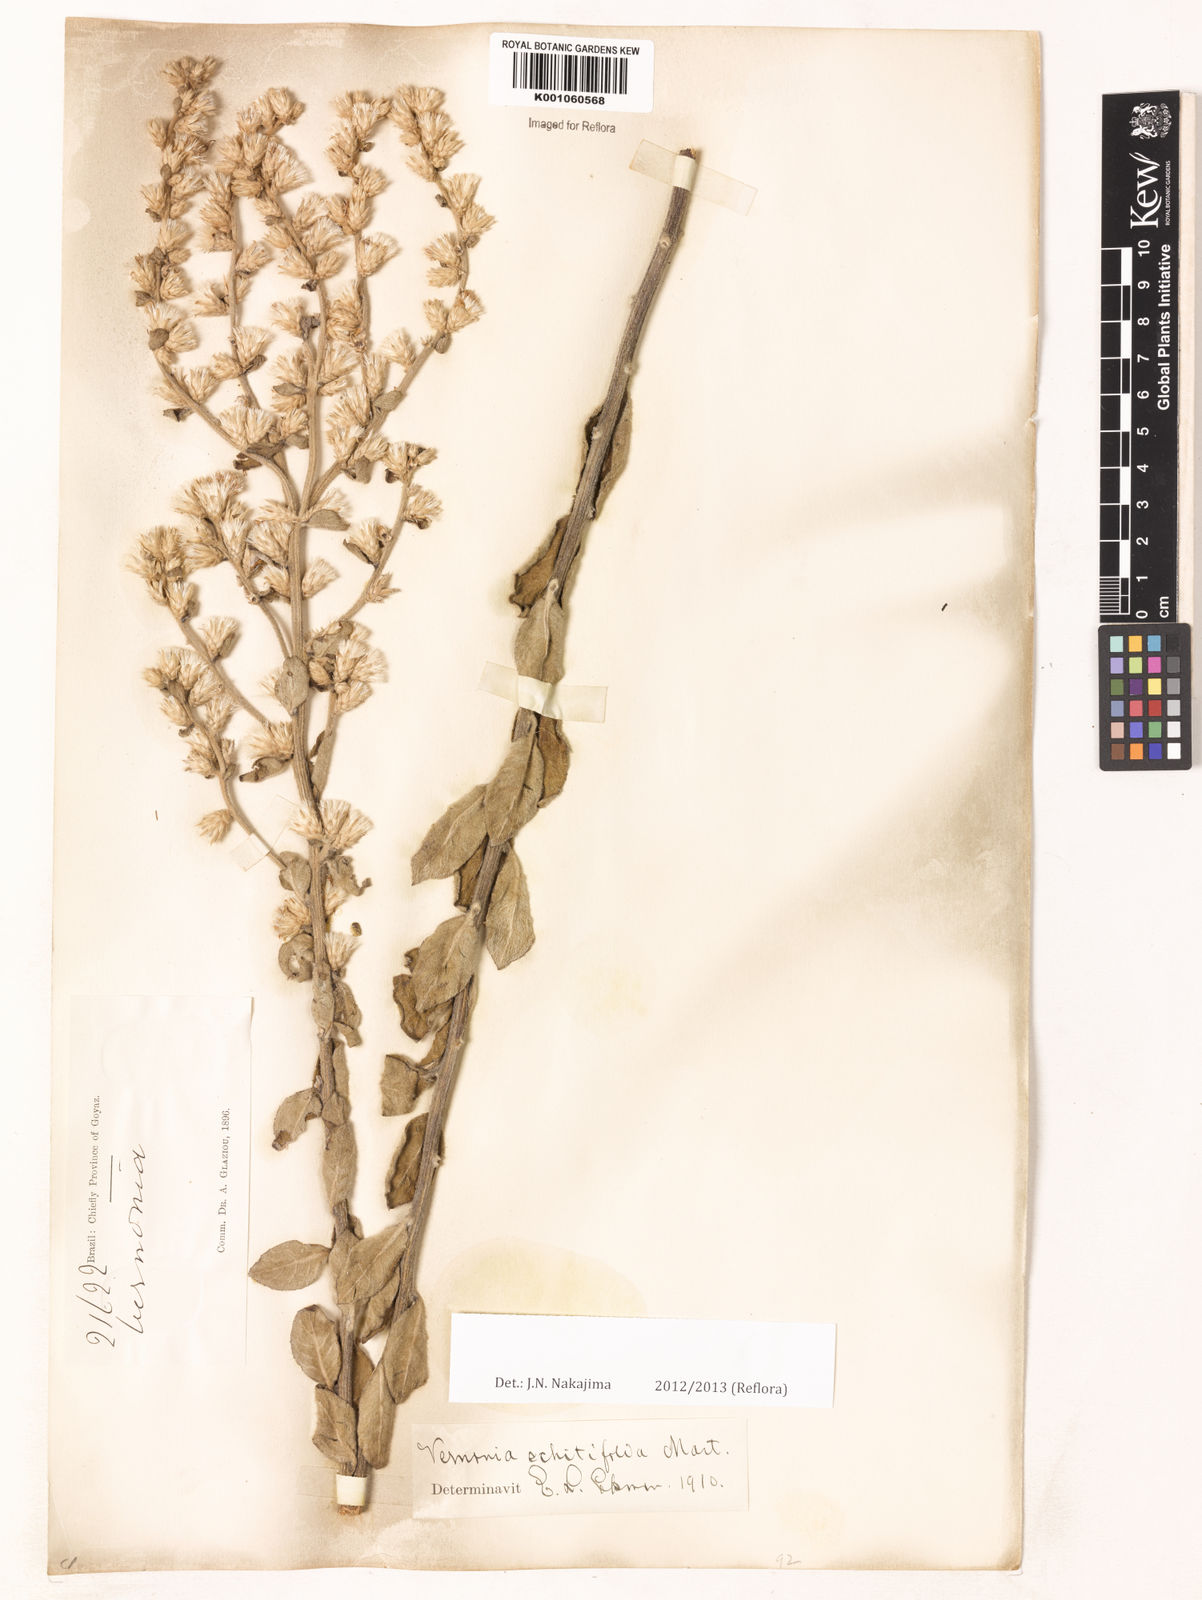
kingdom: Plantae
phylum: Tracheophyta
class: Magnoliopsida
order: Asterales
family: Asteraceae
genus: Acilepidopsis
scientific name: Acilepidopsis echitifolia
